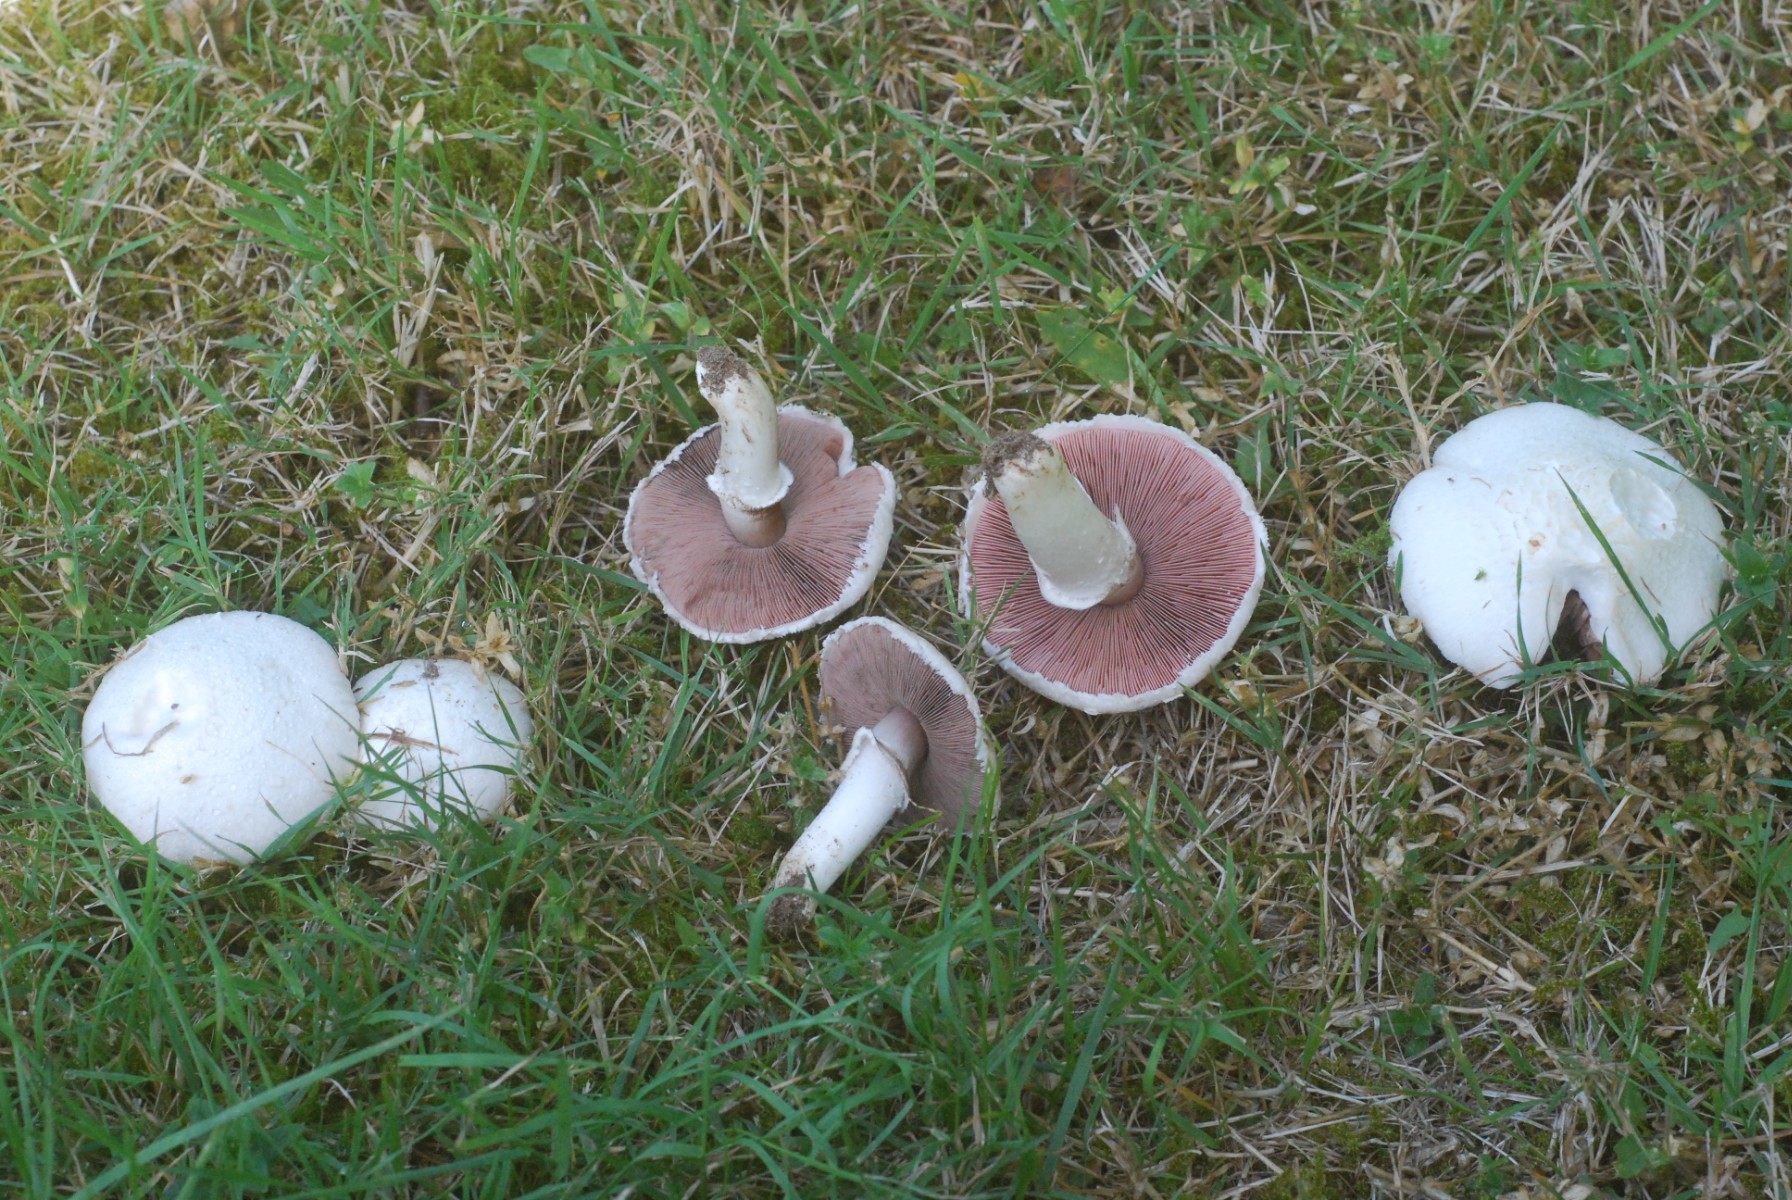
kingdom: Fungi
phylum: Basidiomycota
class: Agaricomycetes
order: Agaricales
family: Agaricaceae
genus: Agaricus
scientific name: Agaricus campestris
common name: mark-champignon
